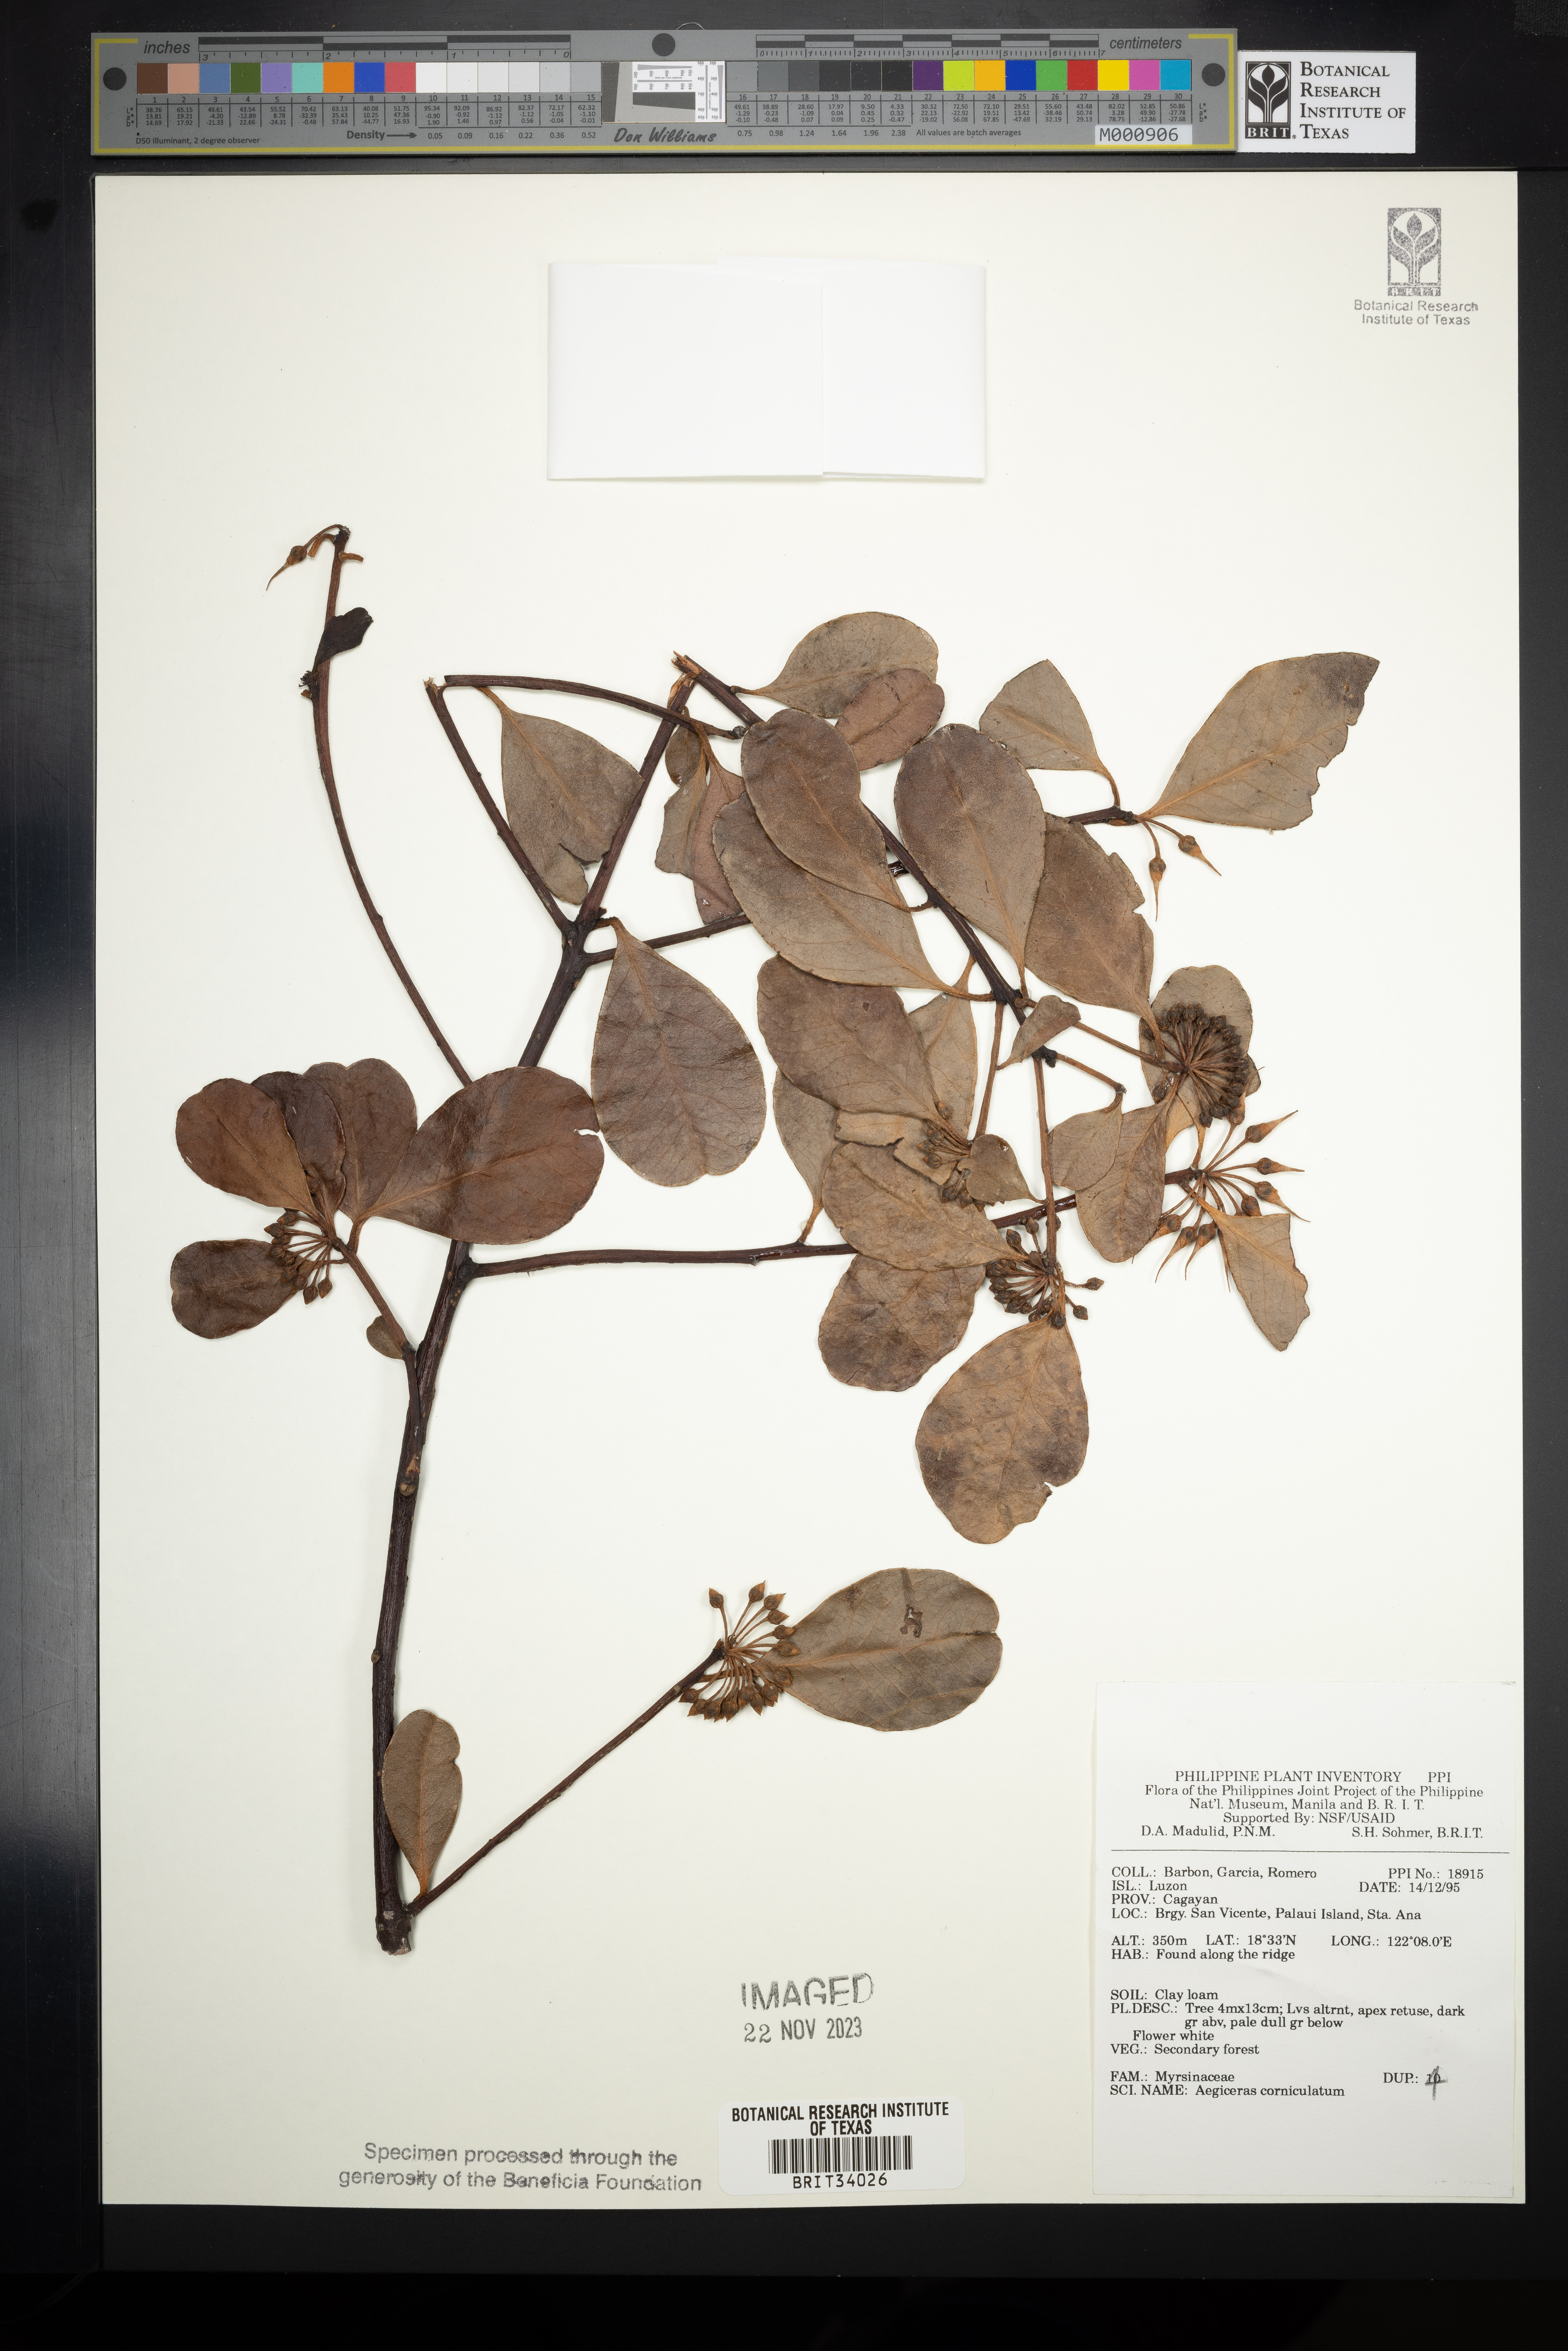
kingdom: Plantae
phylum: Tracheophyta
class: Magnoliopsida
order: Ericales
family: Primulaceae
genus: Aegiceras
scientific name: Aegiceras corniculatum
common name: River mangrove
